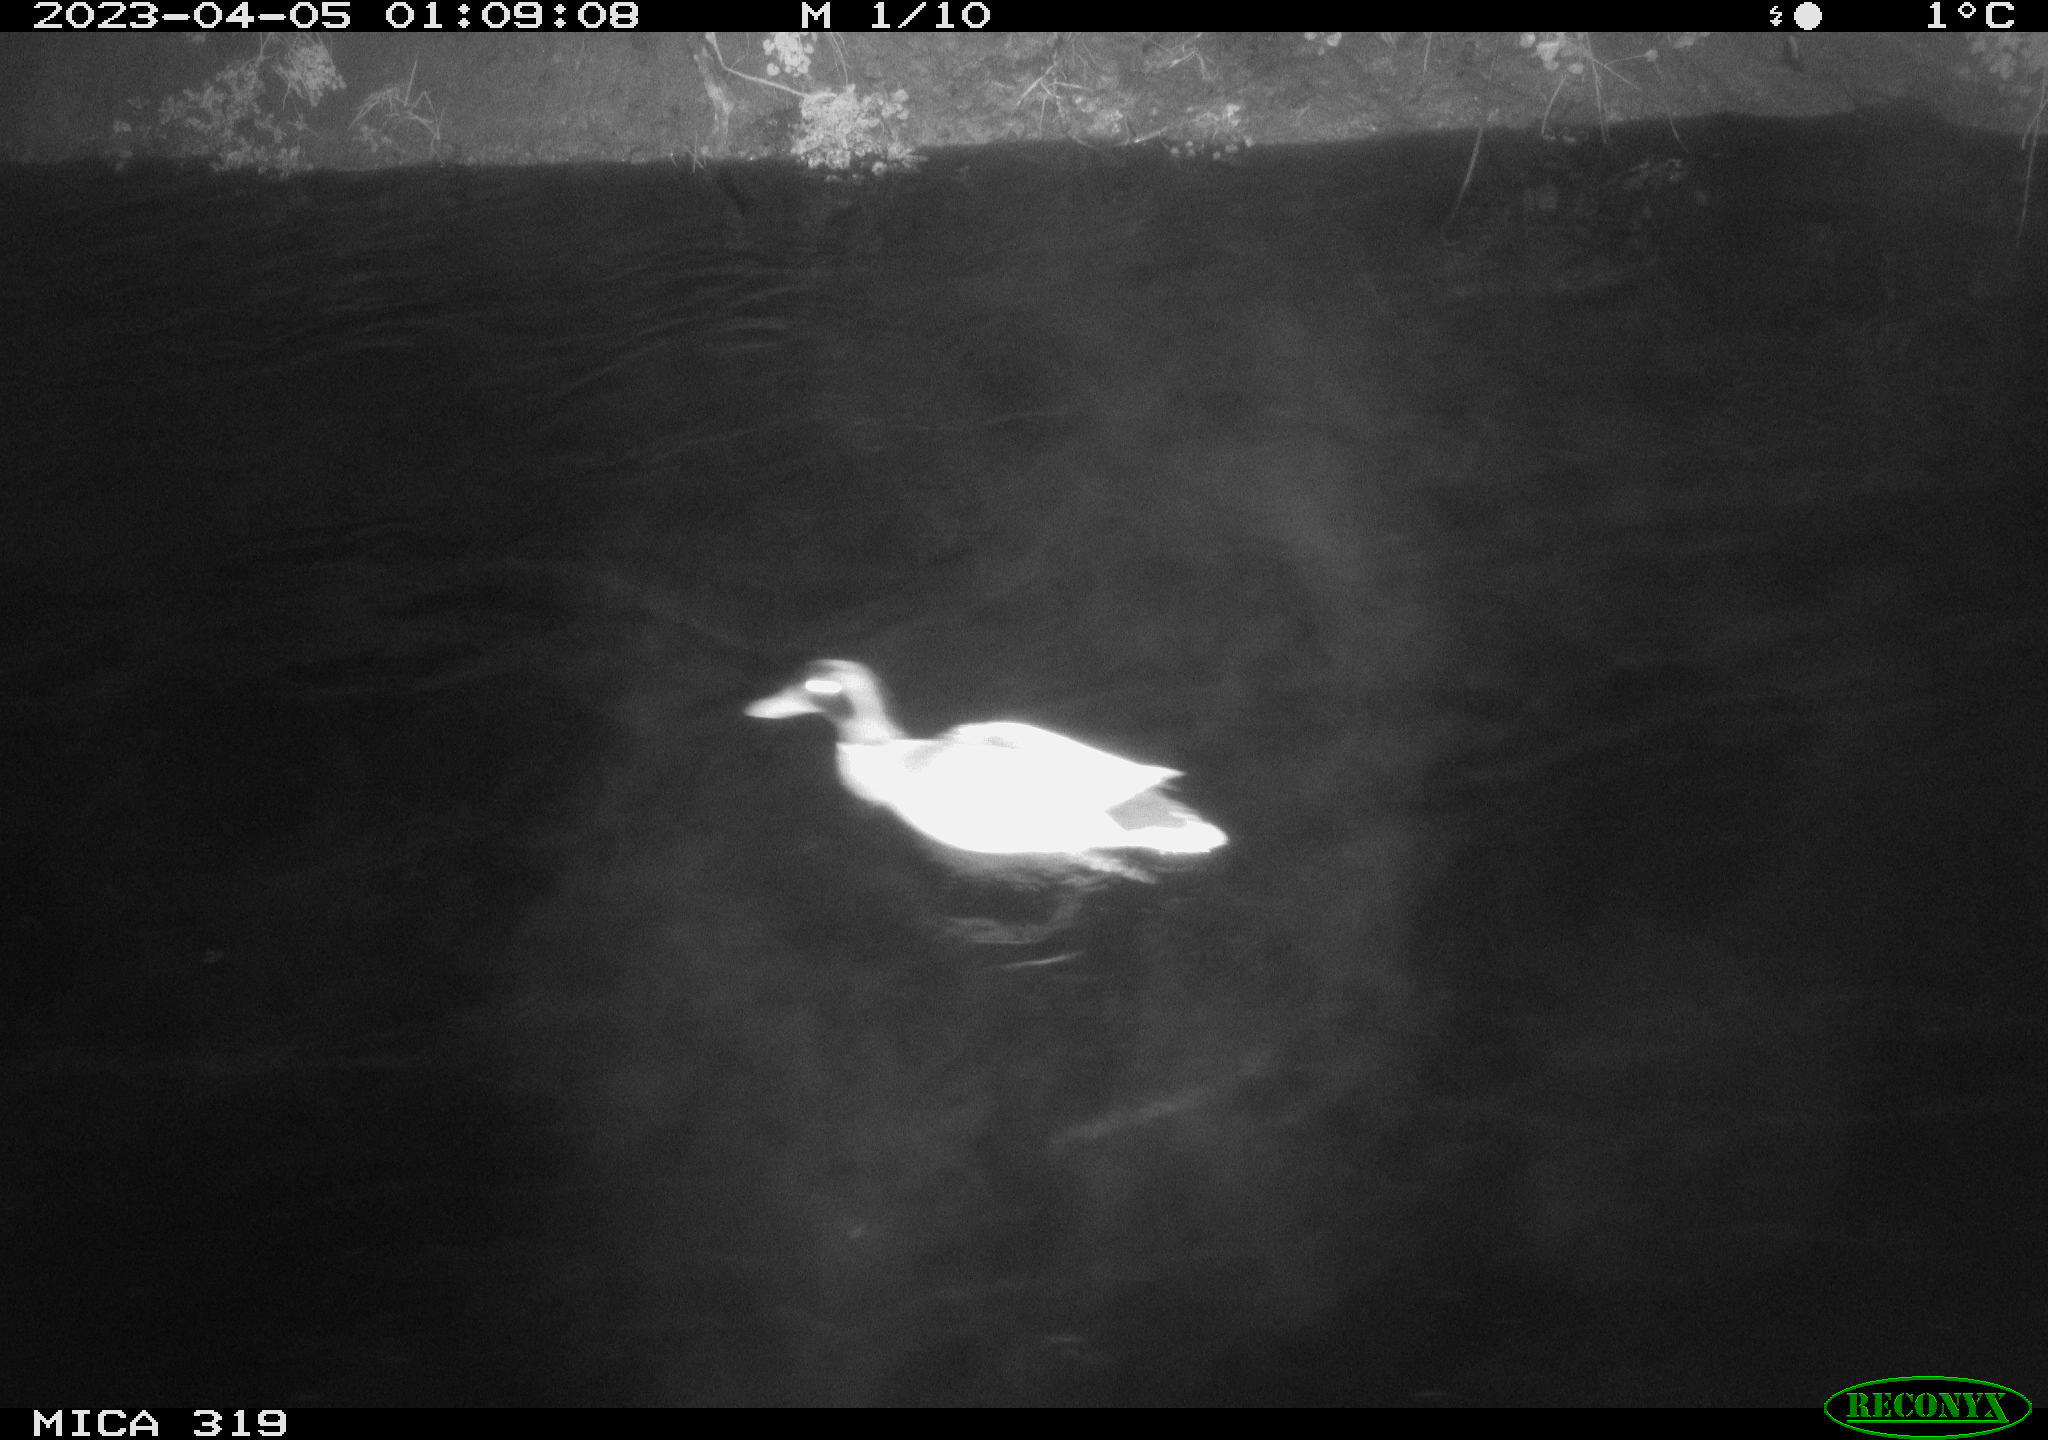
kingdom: Animalia
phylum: Chordata
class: Aves
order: Anseriformes
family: Anatidae
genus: Anas
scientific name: Anas
